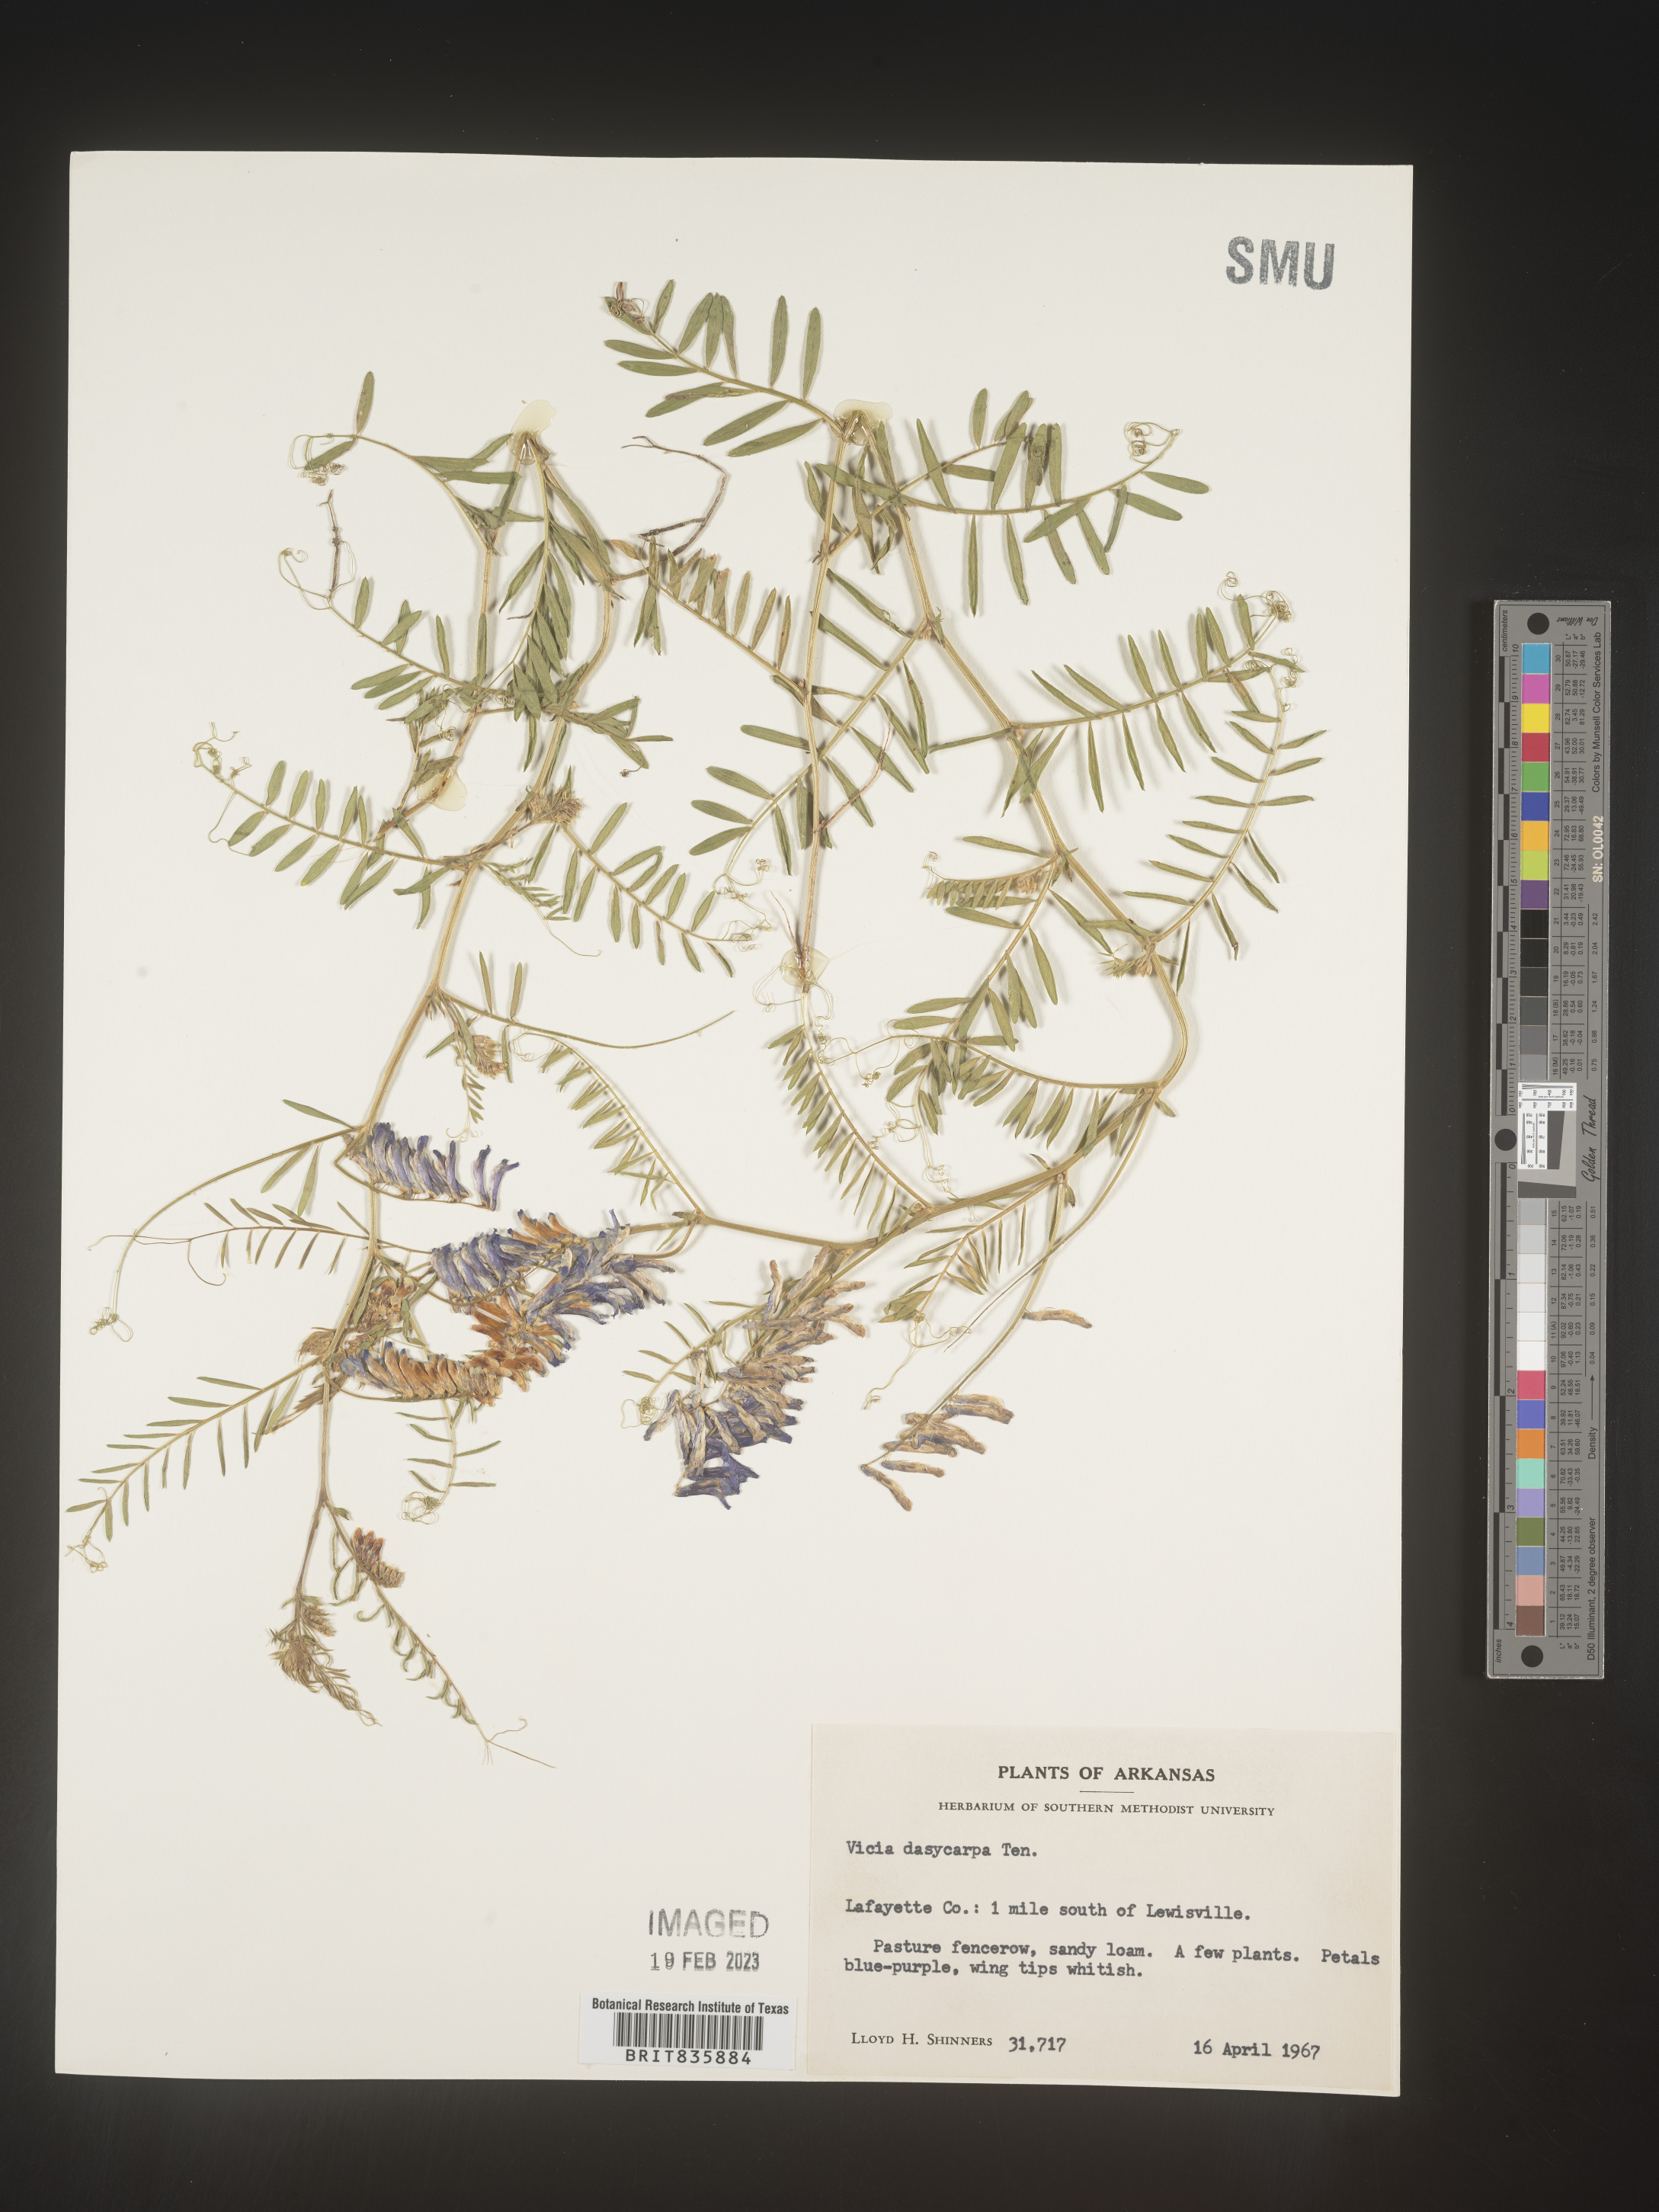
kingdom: Plantae
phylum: Tracheophyta
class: Magnoliopsida
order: Fabales
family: Fabaceae
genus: Vicia
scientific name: Vicia villosa
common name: Fodder vetch
